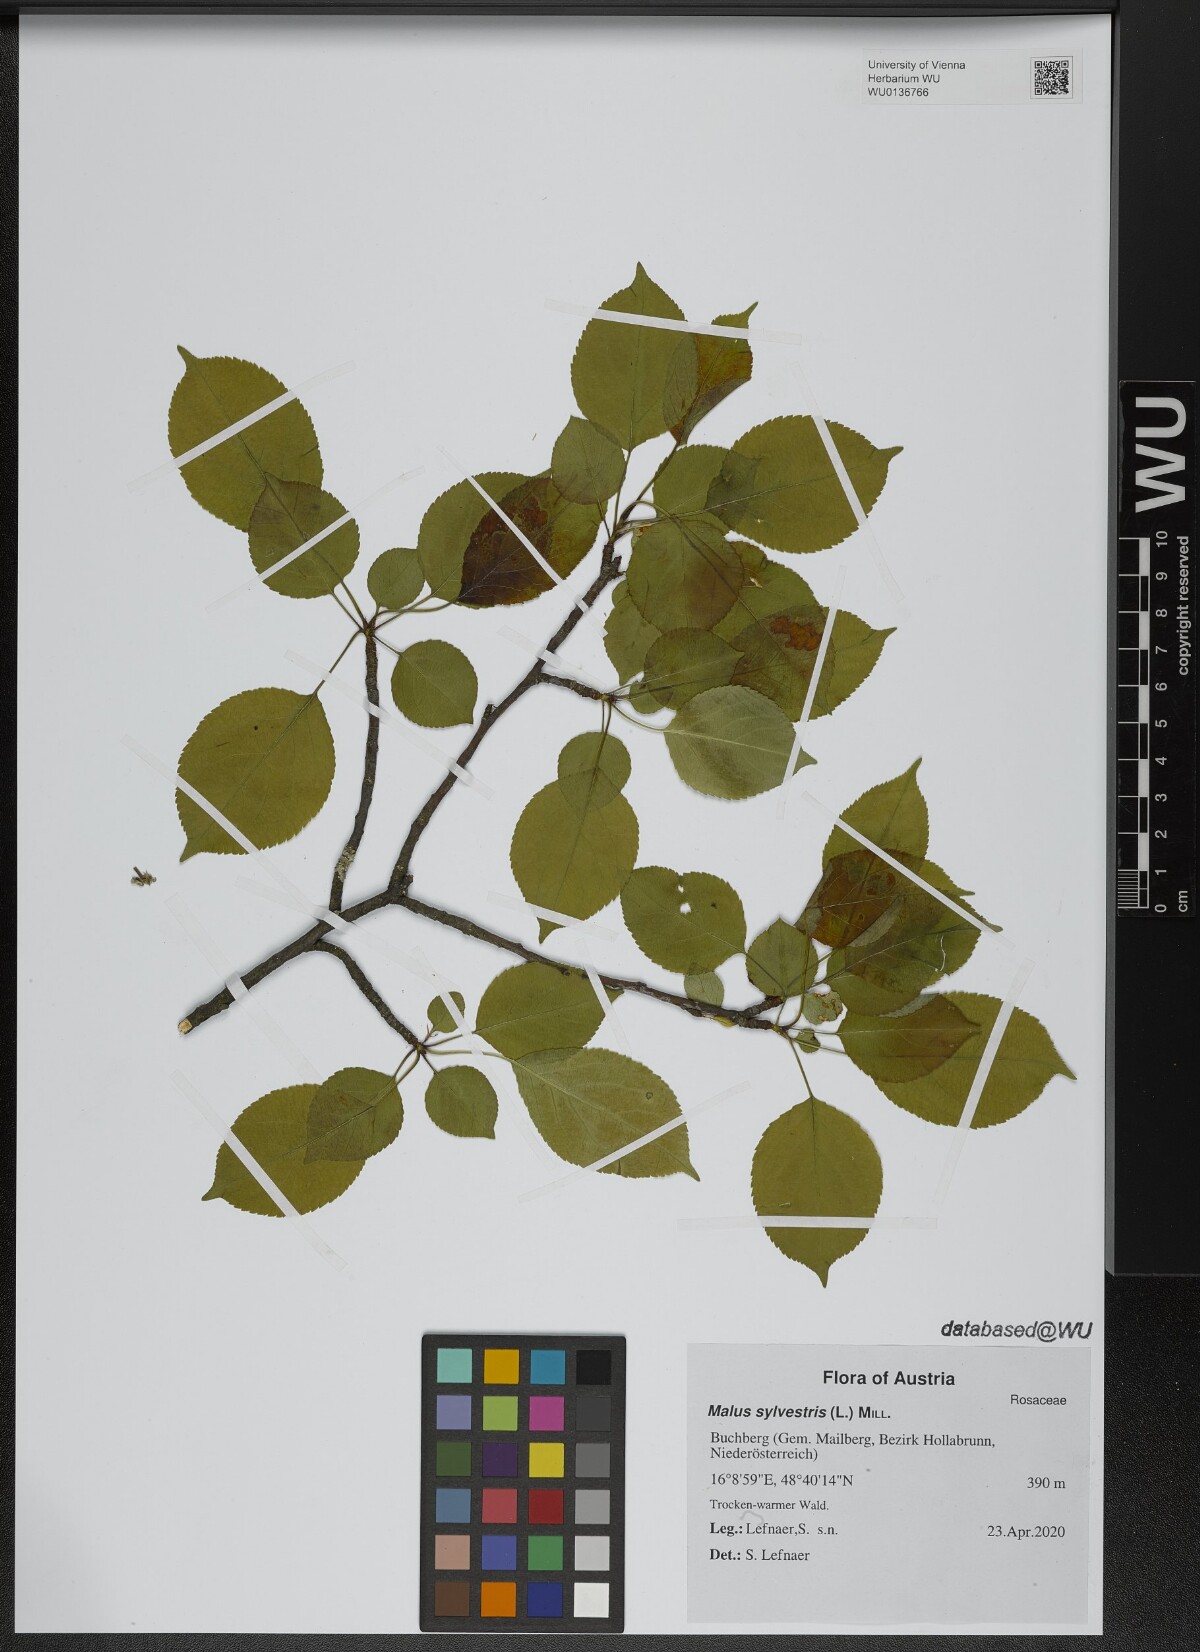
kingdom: Plantae
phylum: Tracheophyta
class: Magnoliopsida
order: Rosales
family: Rosaceae
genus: Malus
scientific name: Malus sylvestris
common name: Crab apple
